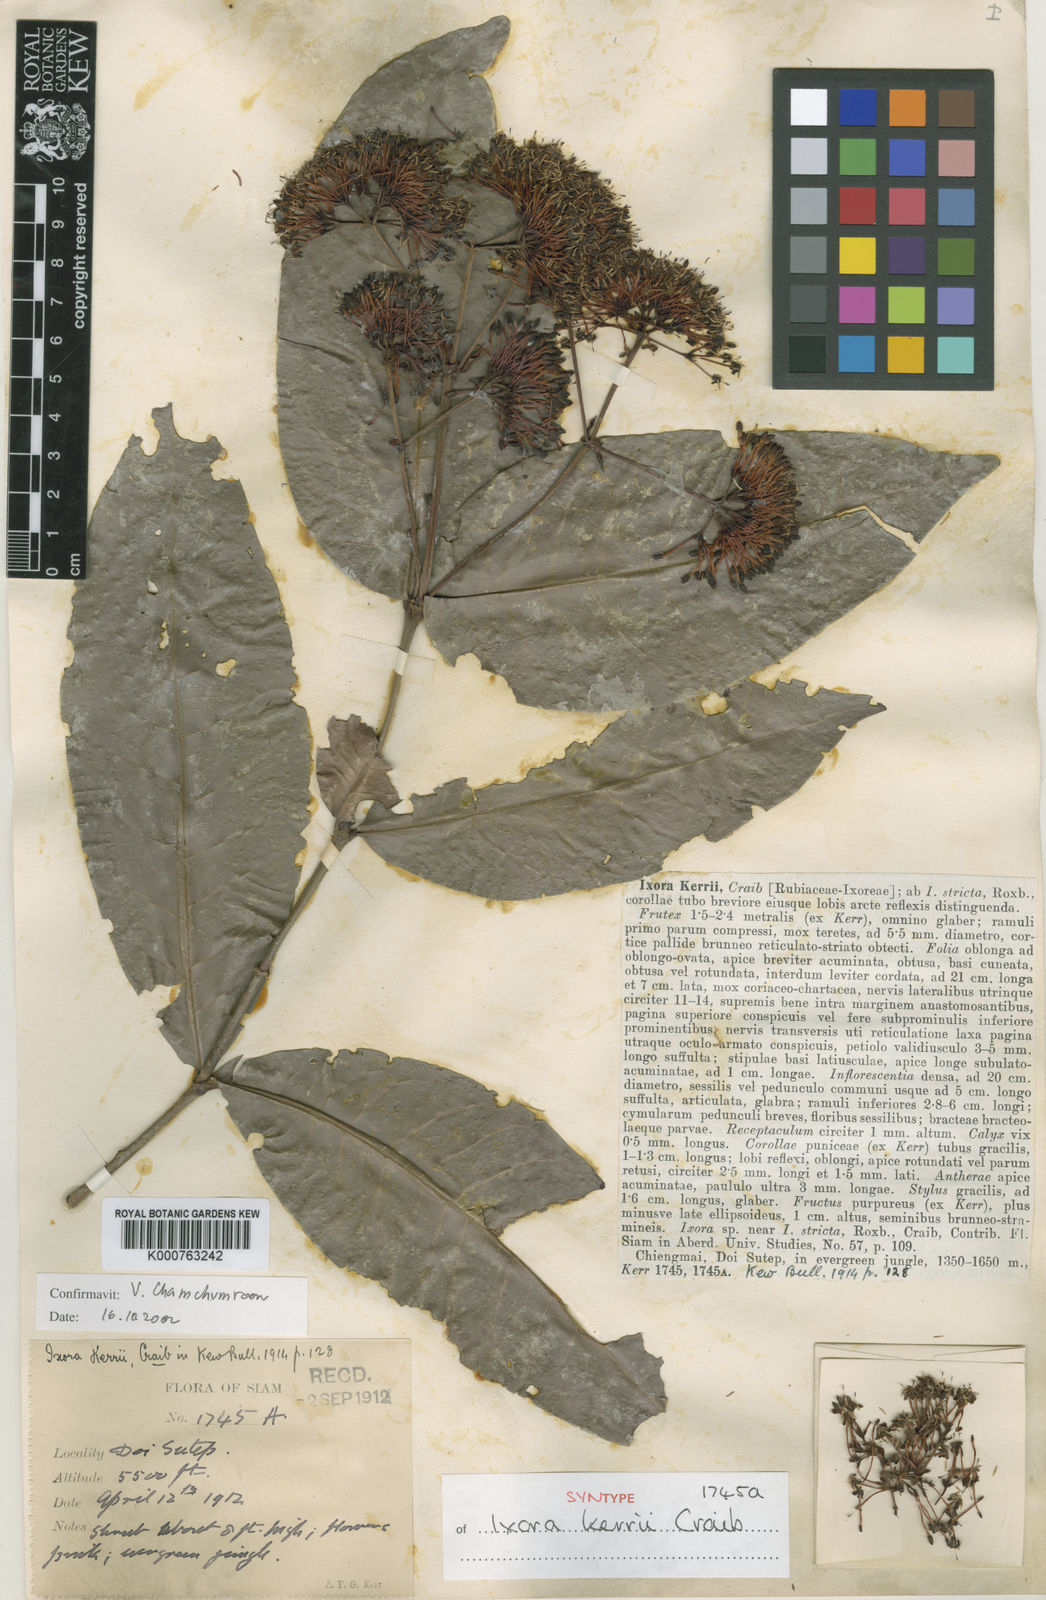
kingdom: Plantae
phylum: Tracheophyta
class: Magnoliopsida
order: Gentianales
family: Rubiaceae
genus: Ixora
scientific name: Ixora kerrii
